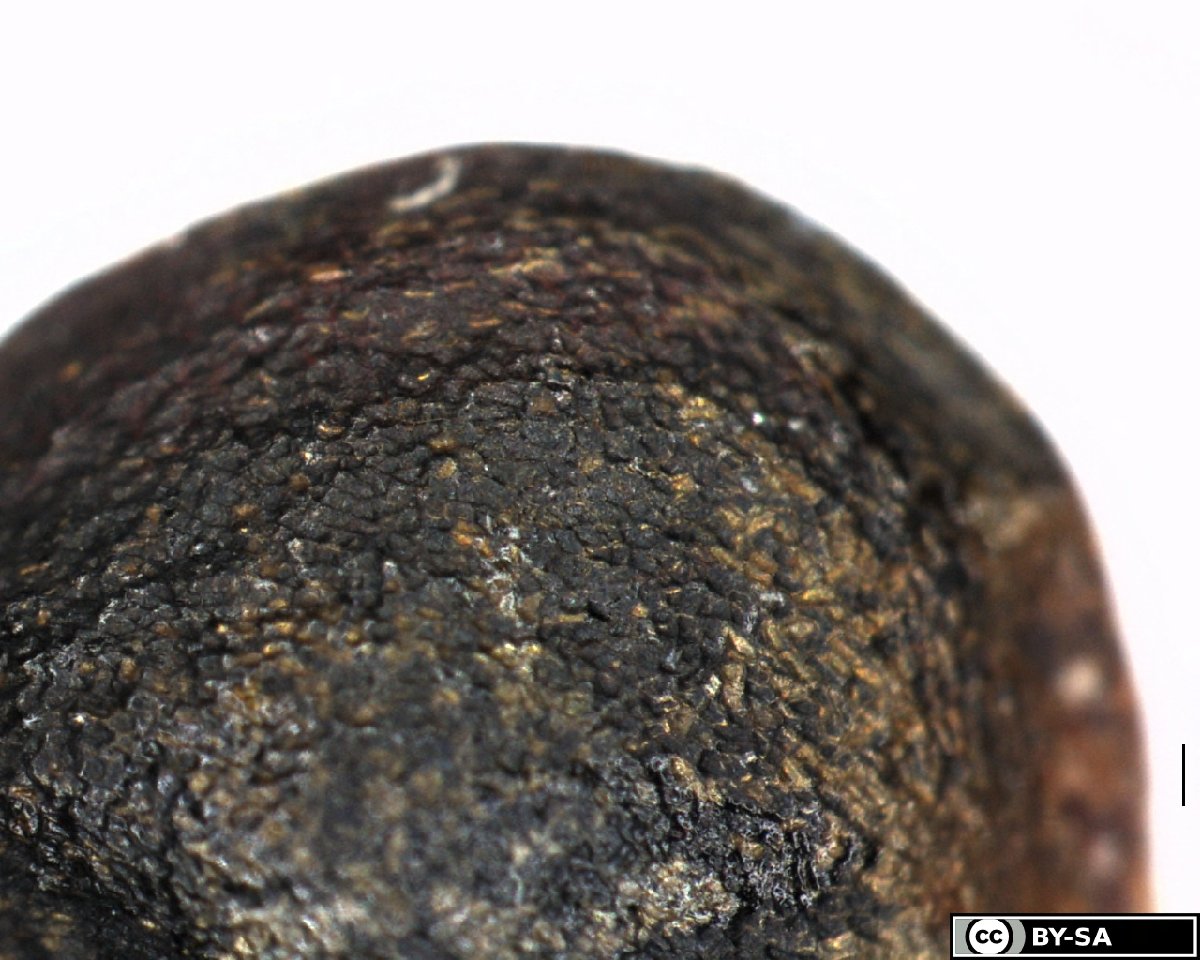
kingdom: Plantae
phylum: Tracheophyta
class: Magnoliopsida
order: Ranunculales
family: Ranunculaceae
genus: Ranunculus
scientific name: Ranunculus acris
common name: Meadow buttercup
